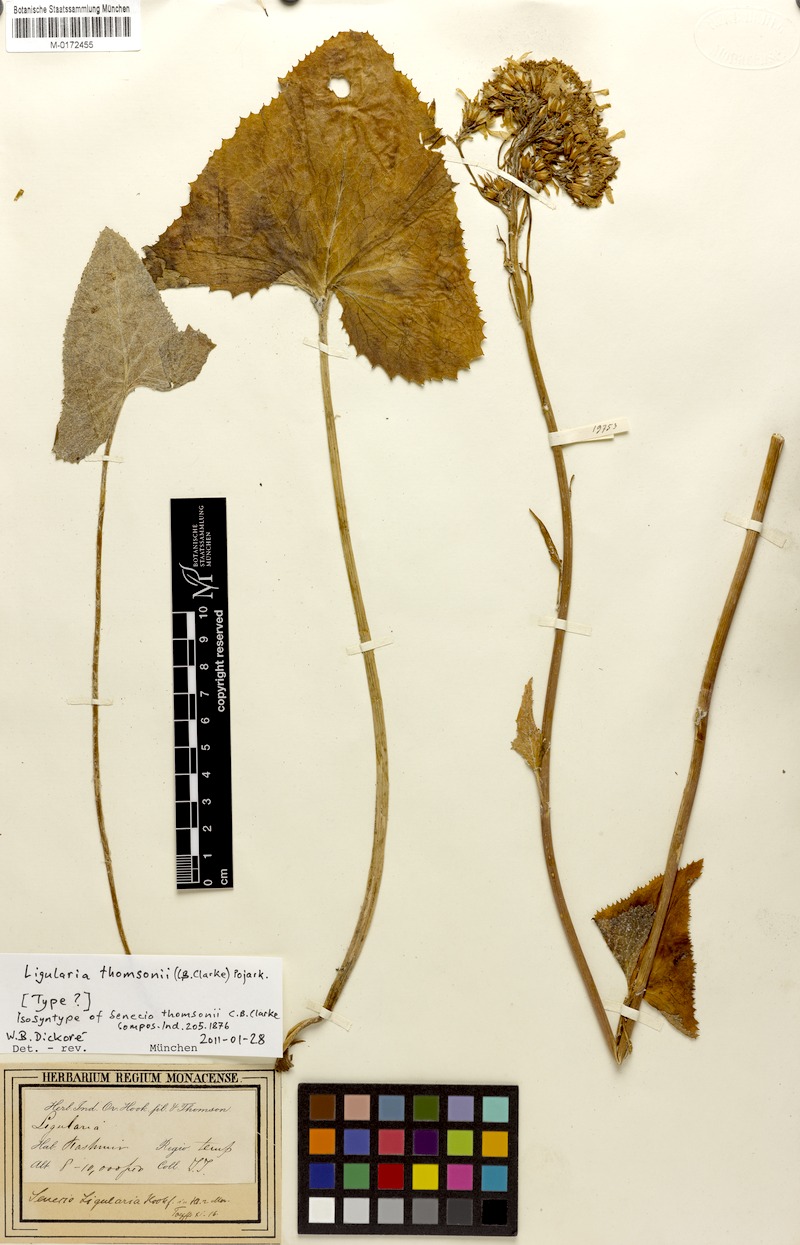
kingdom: Plantae
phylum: Tracheophyta
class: Magnoliopsida
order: Asterales
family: Asteraceae
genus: Vickifunkia
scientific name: Vickifunkia thomsonii
